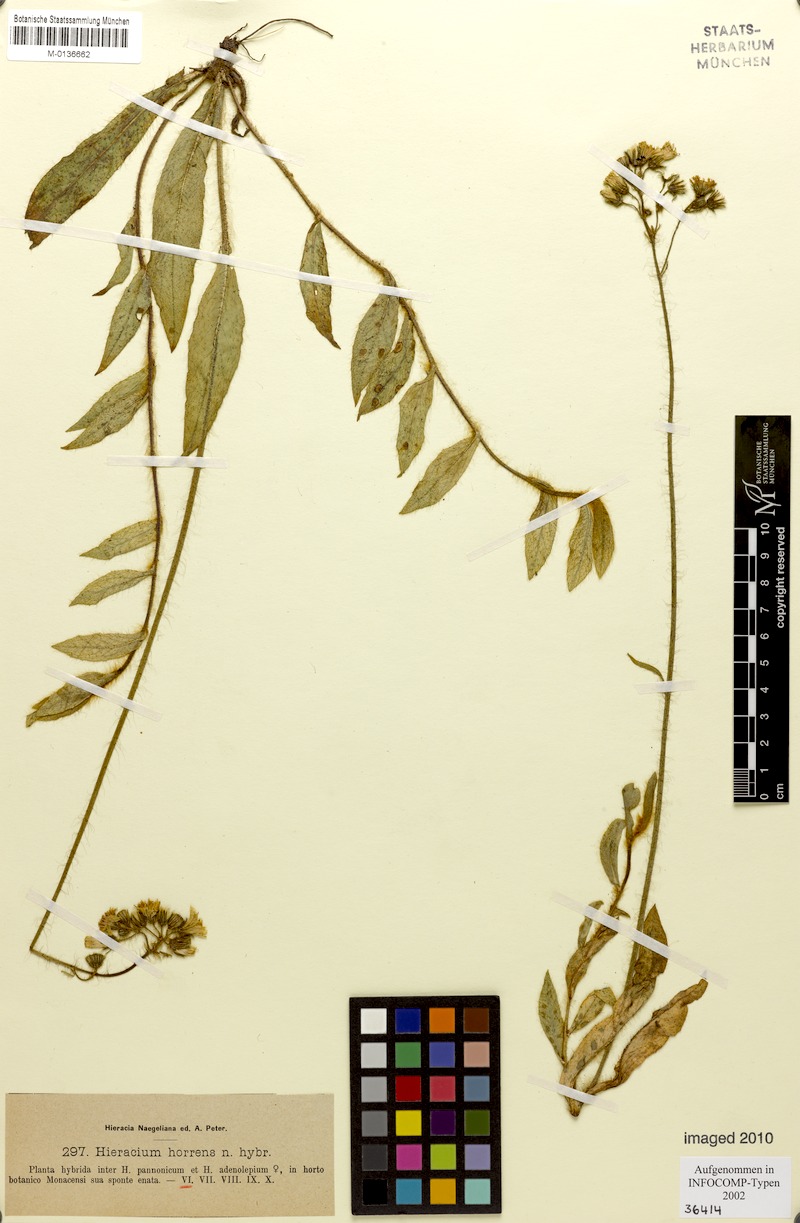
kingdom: Plantae
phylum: Tracheophyta
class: Magnoliopsida
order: Asterales
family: Asteraceae
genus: Hieracium
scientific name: Hieracium horrens
